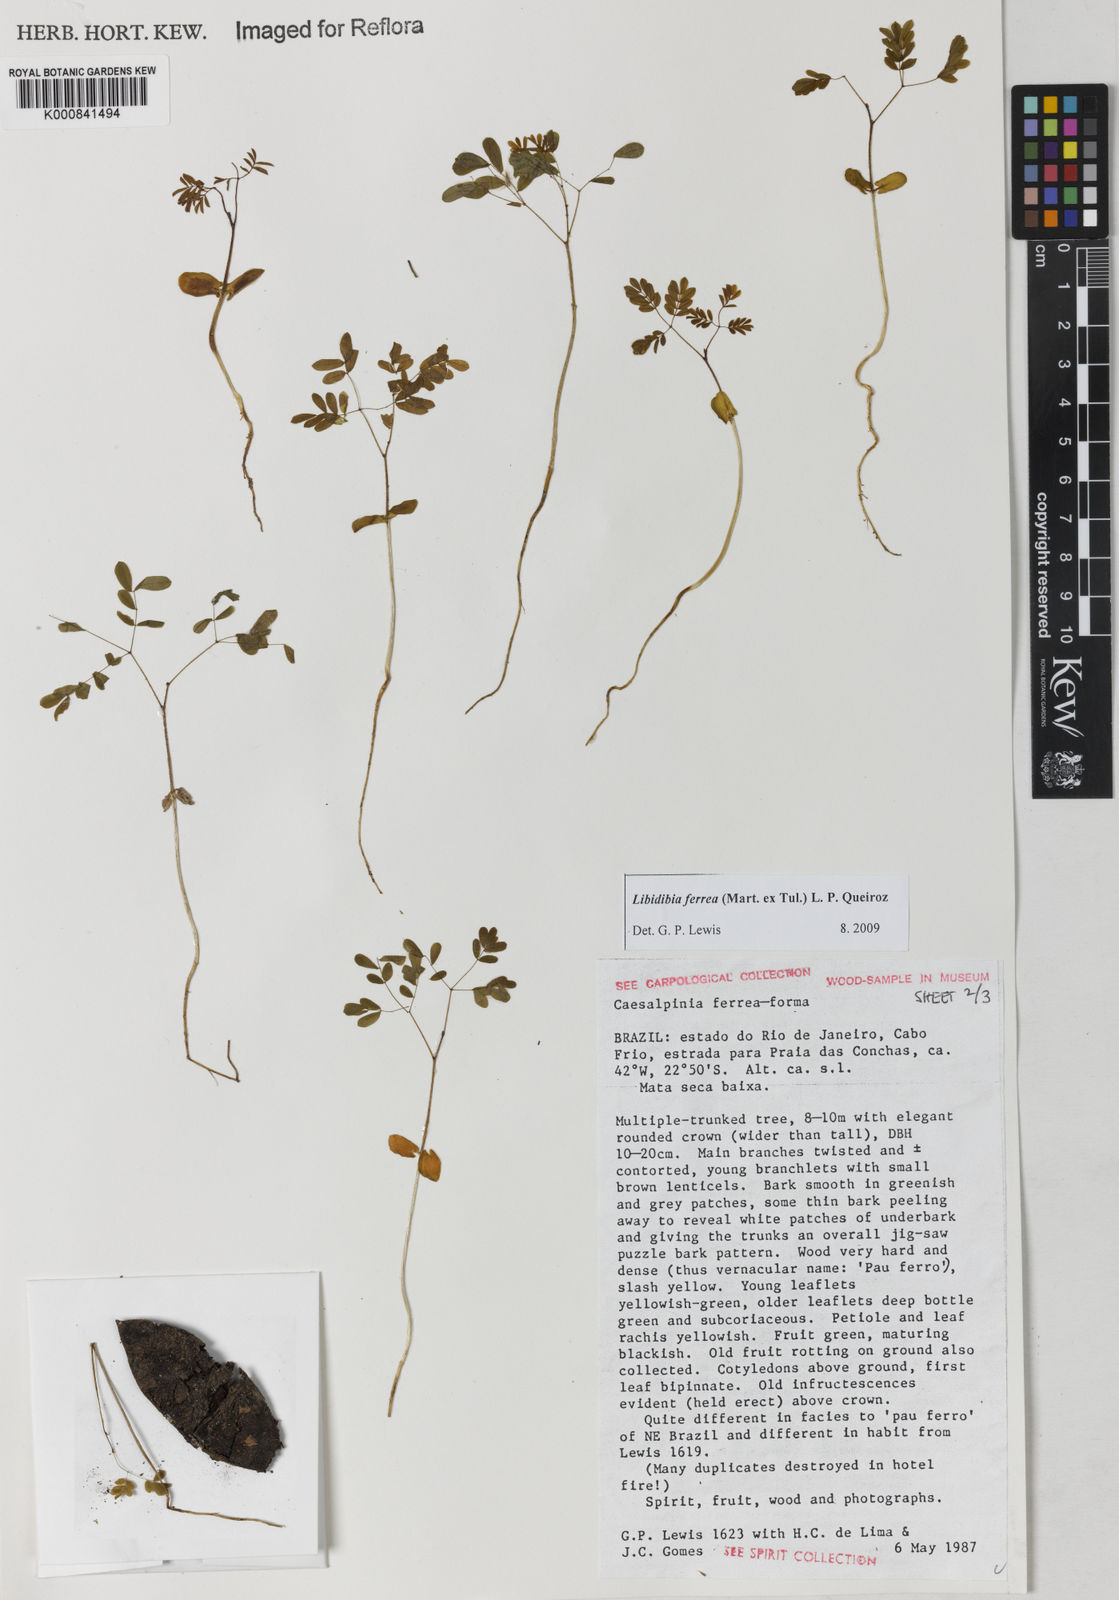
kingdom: Plantae
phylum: Tracheophyta
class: Magnoliopsida
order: Fabales
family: Fabaceae
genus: Libidibia
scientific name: Libidibia ferrea
